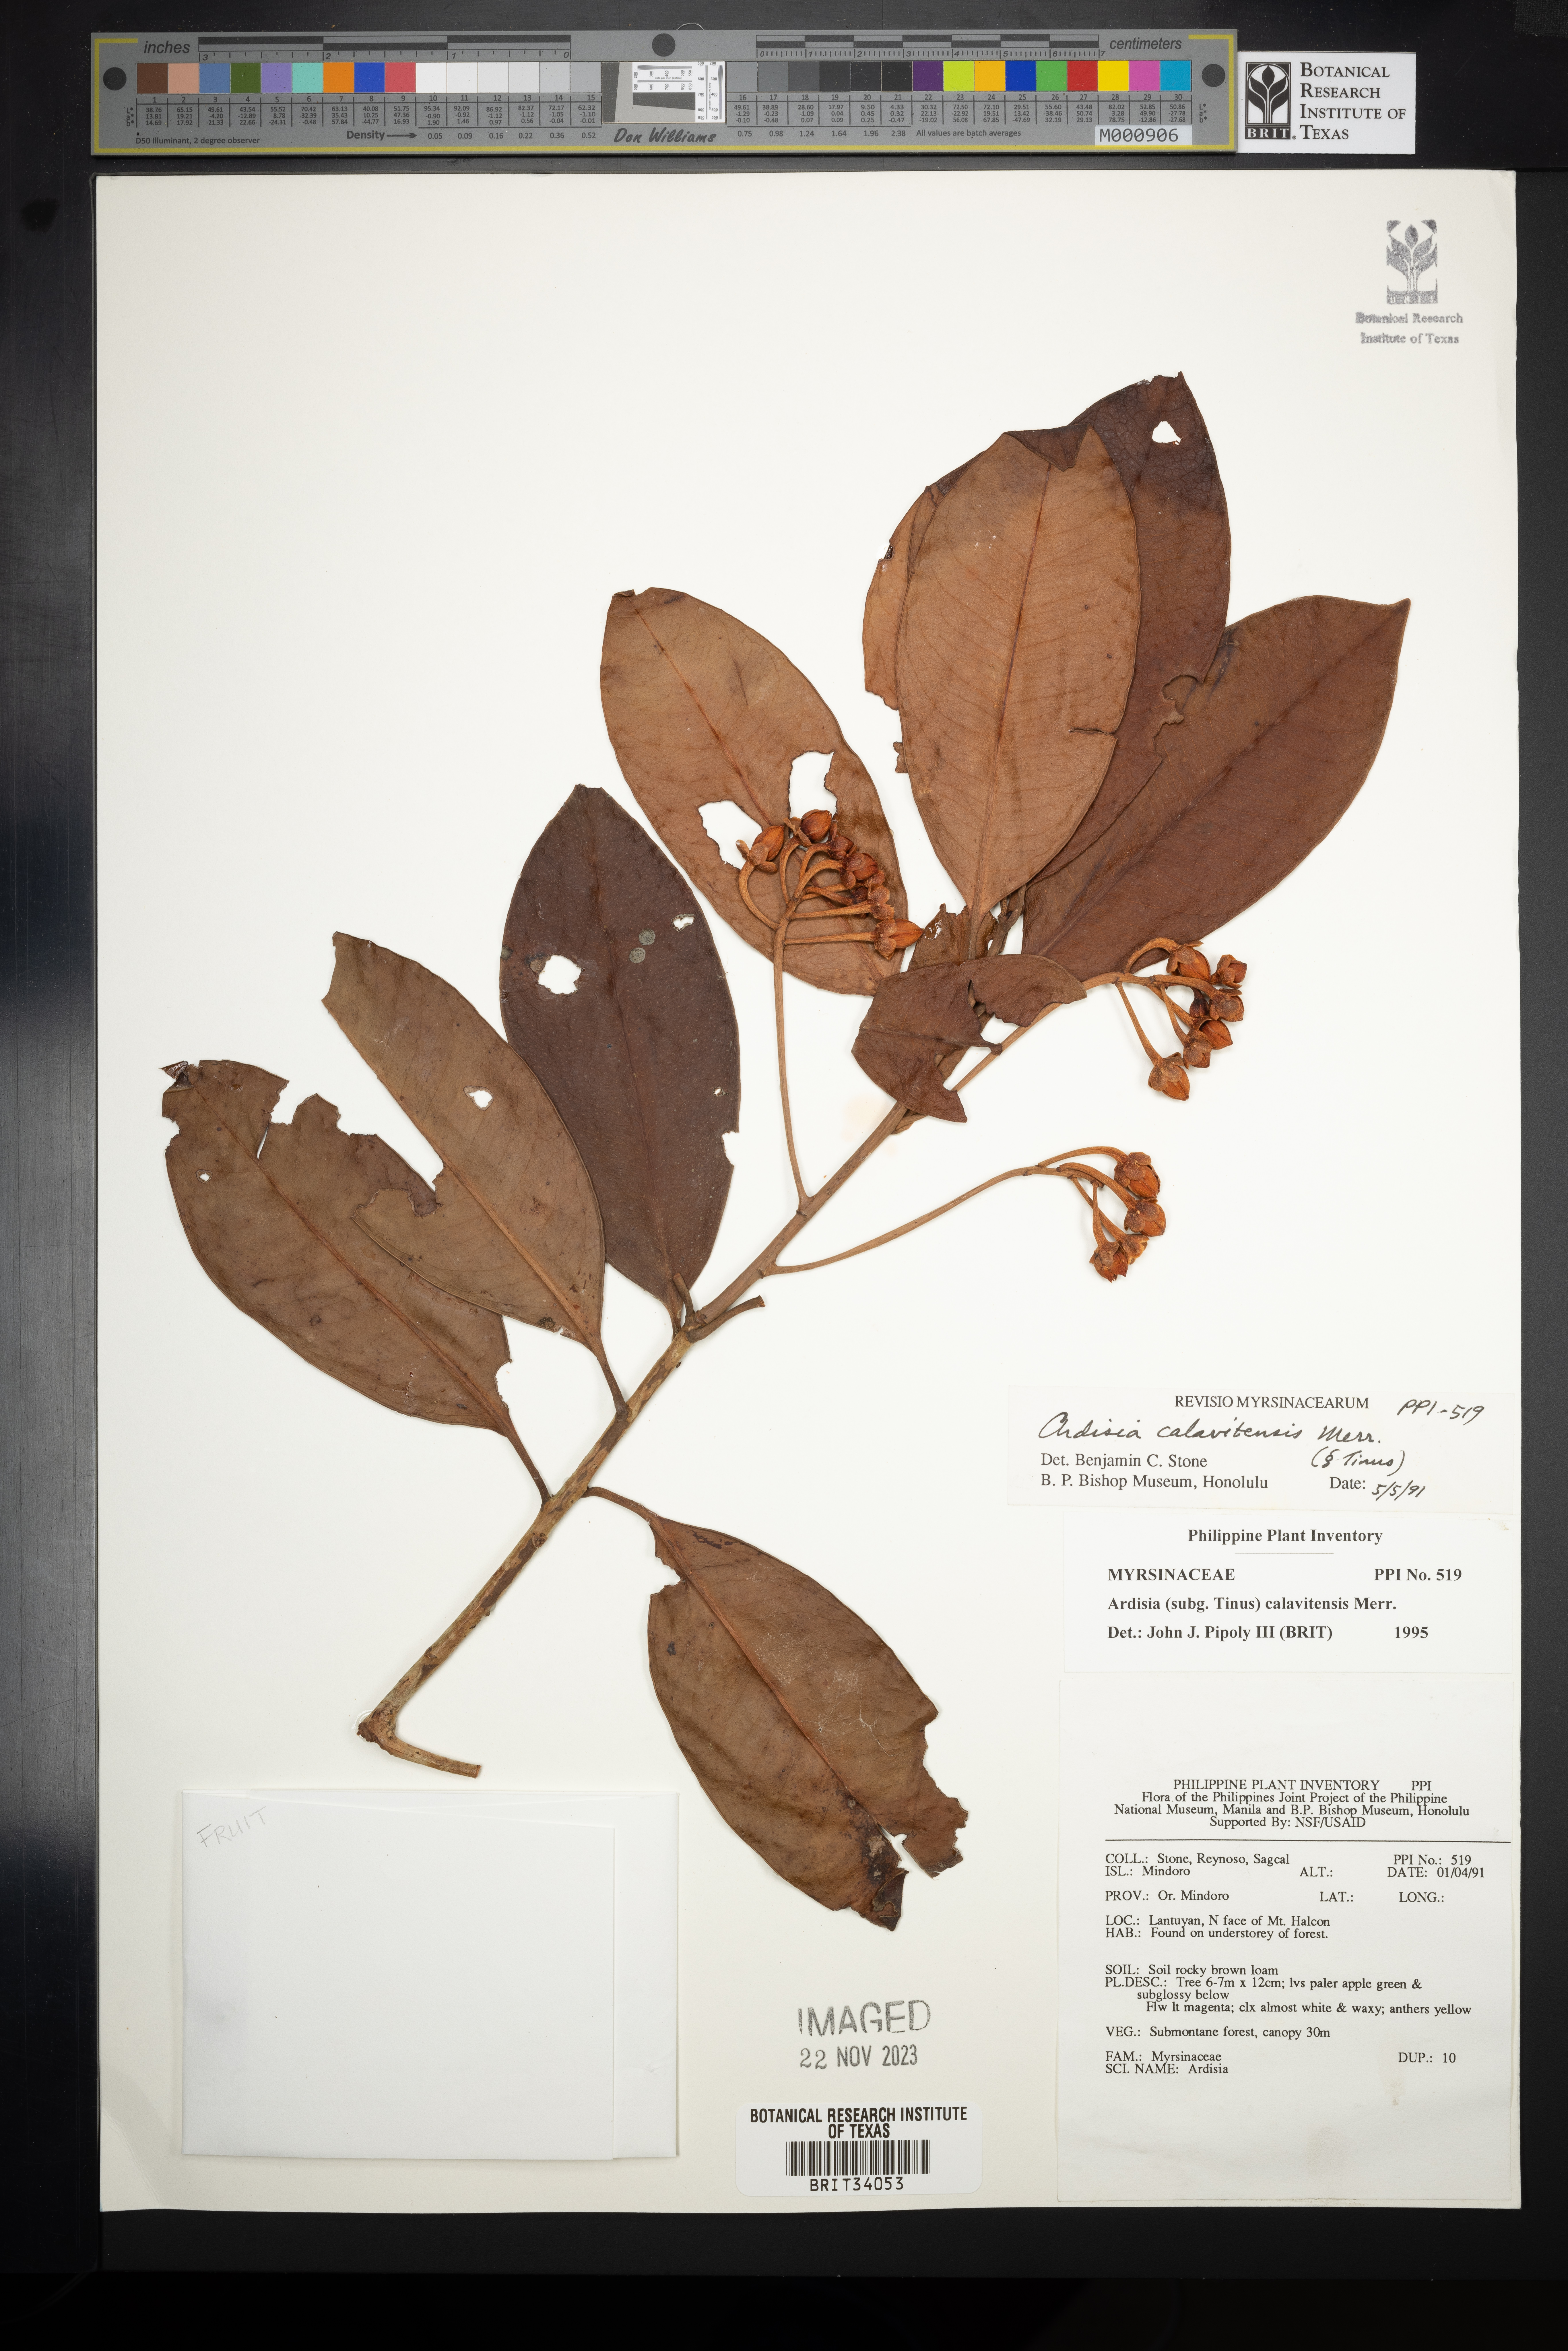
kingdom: Plantae
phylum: Tracheophyta
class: Magnoliopsida
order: Ericales
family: Primulaceae
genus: Ardisia
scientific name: Ardisia calavitensis
